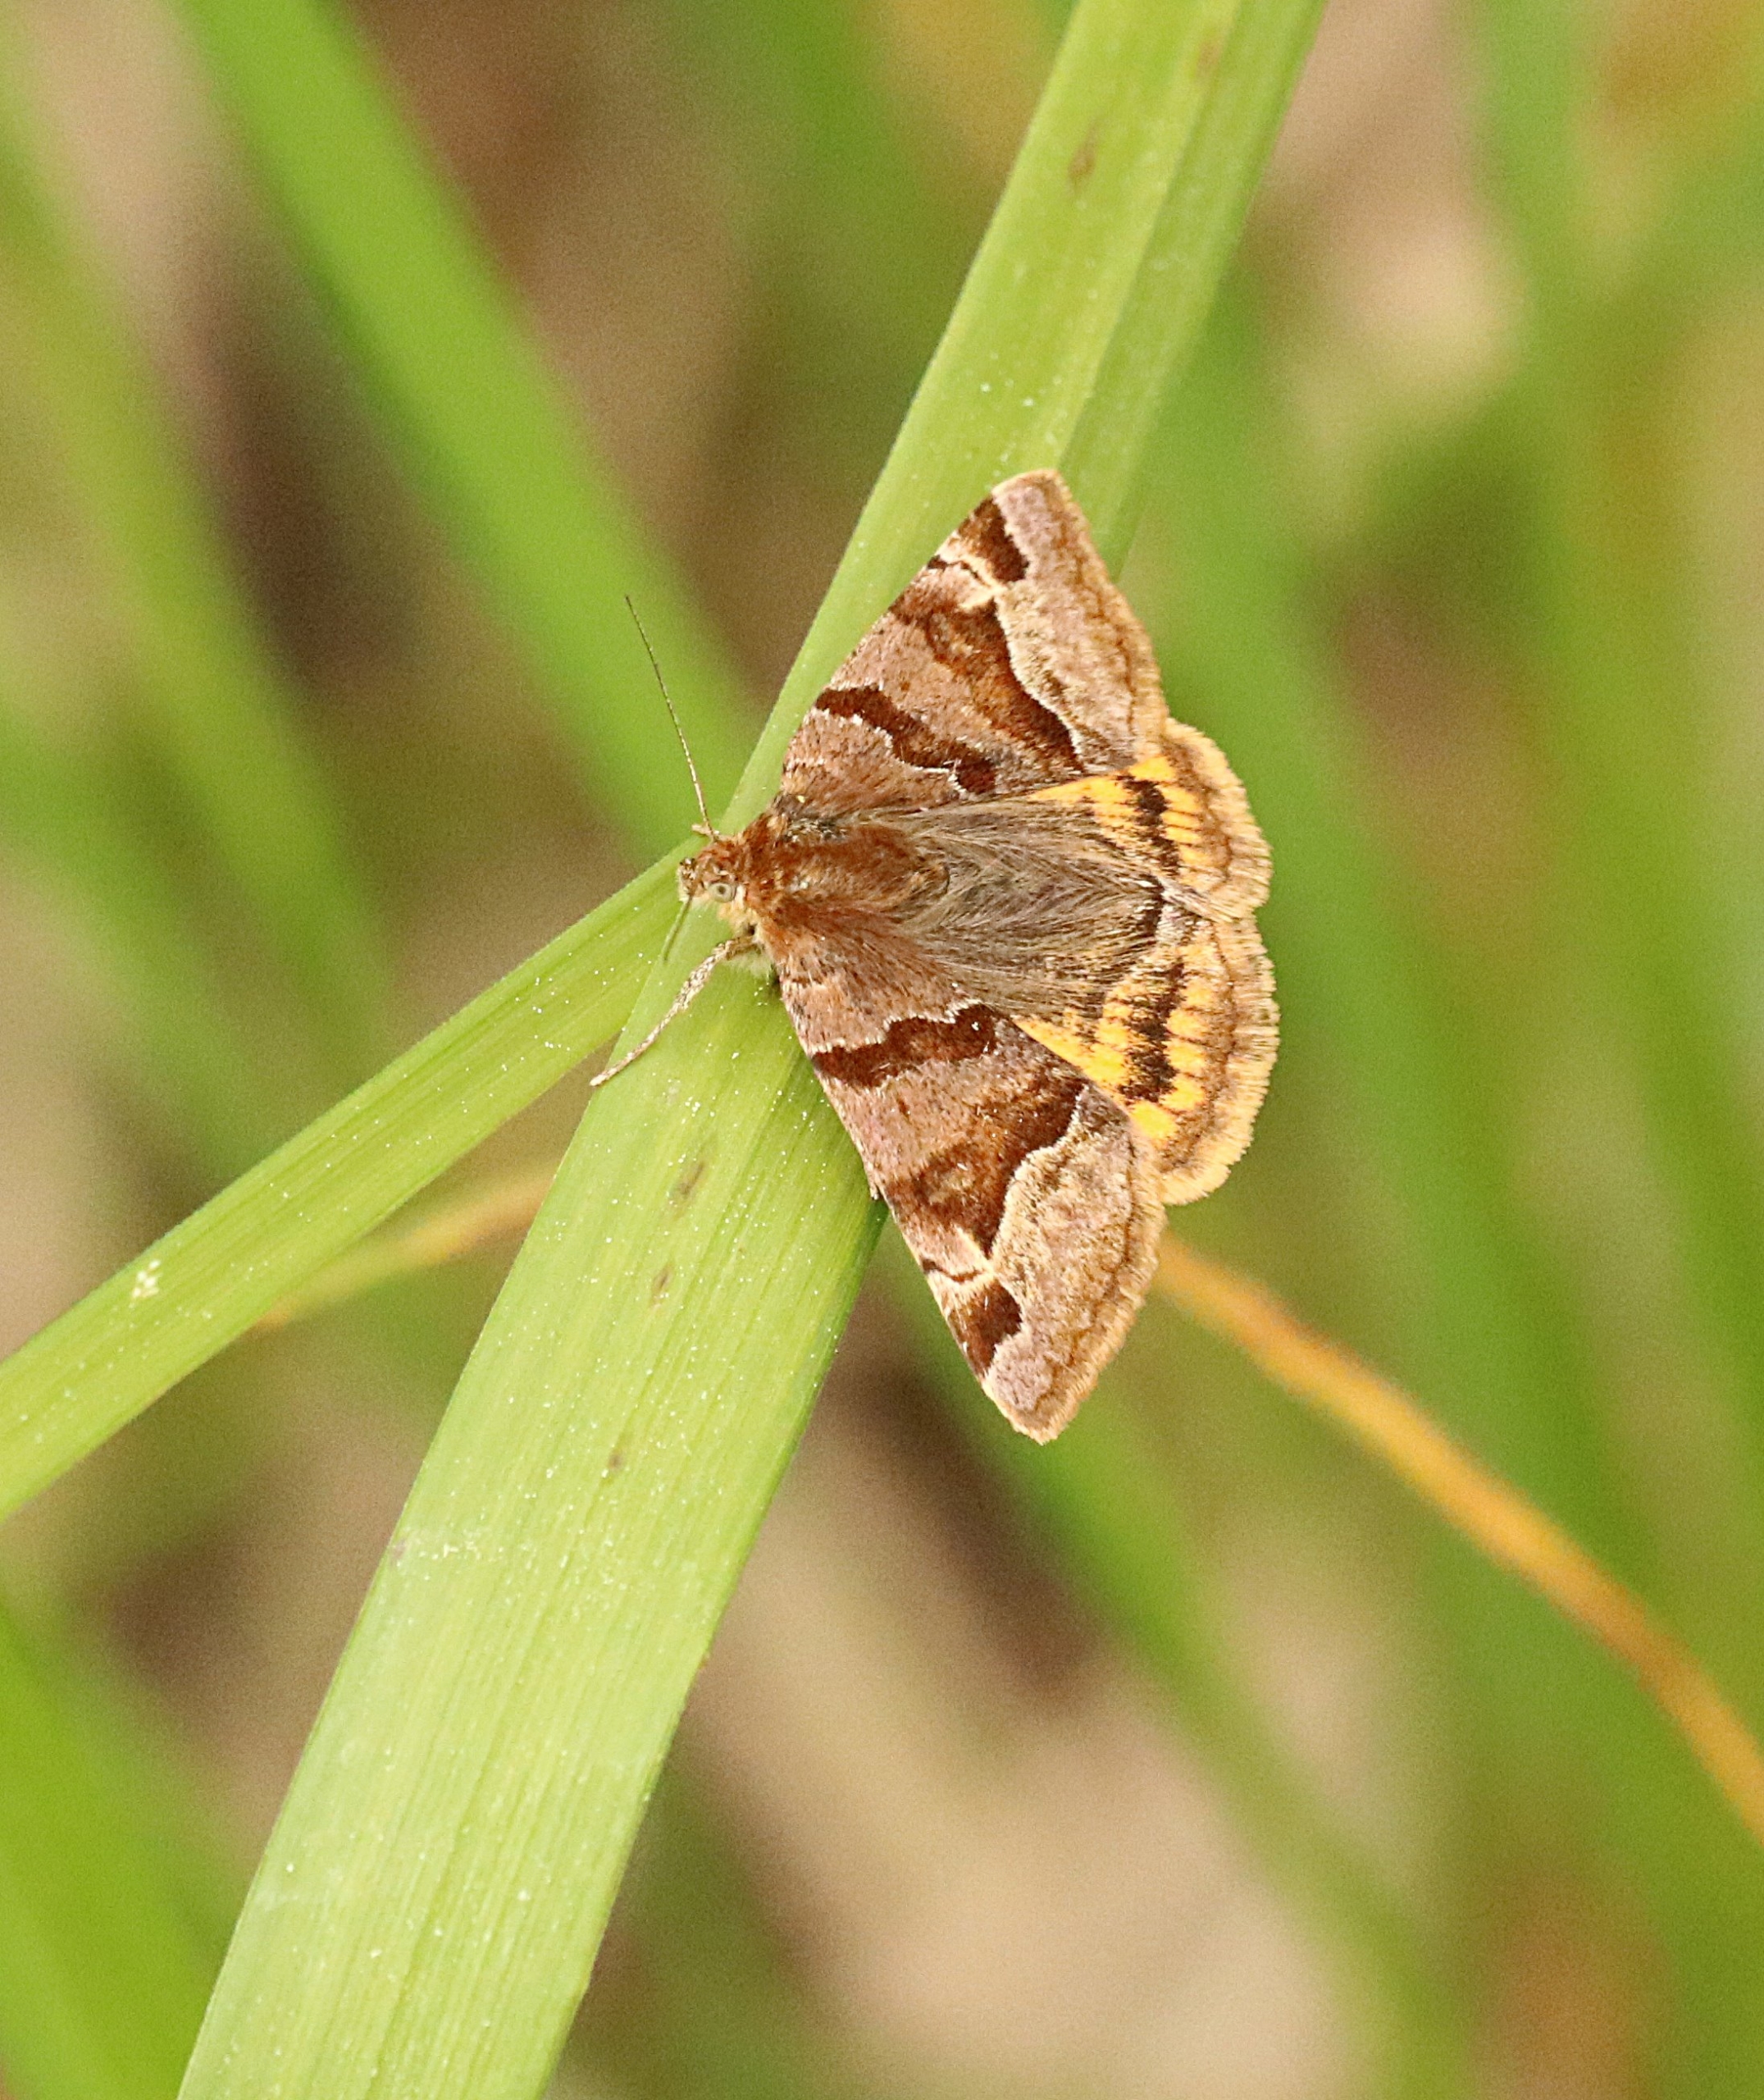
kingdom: Animalia
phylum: Arthropoda
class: Insecta
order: Lepidoptera
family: Erebidae
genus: Euclidia
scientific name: Euclidia glyphica
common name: Brun kløverugle
